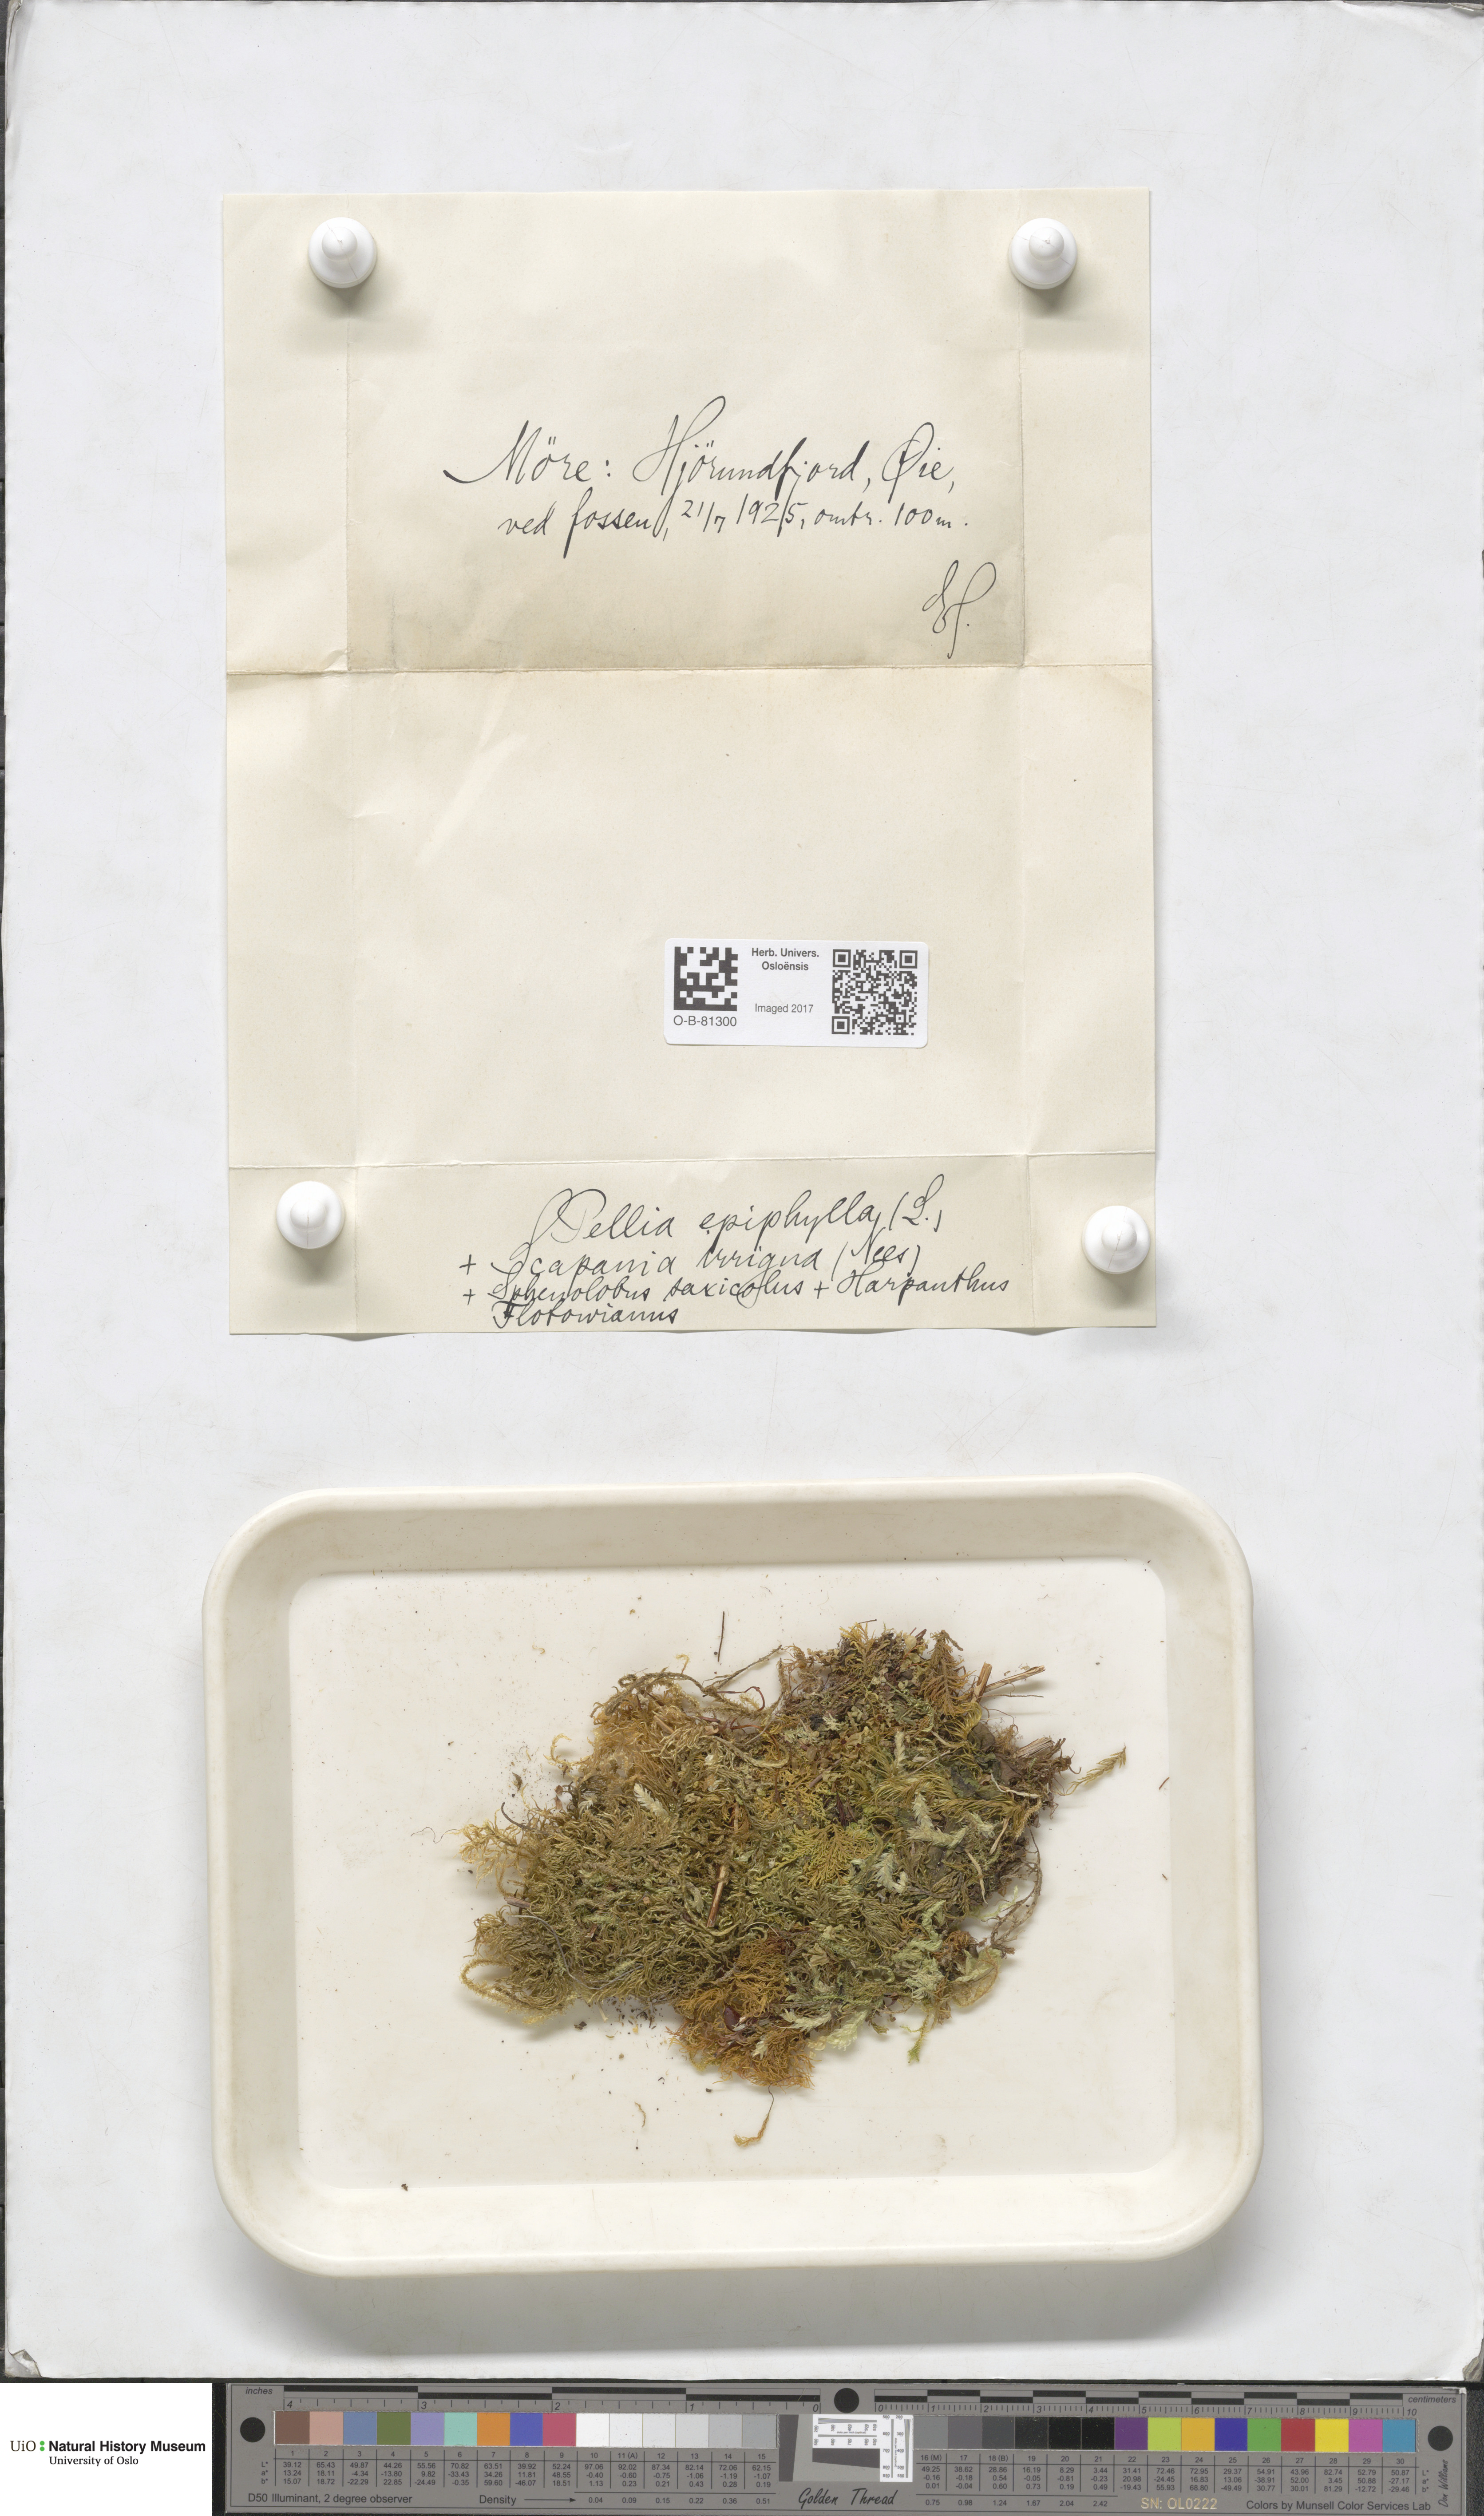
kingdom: Plantae
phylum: Marchantiophyta
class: Jungermanniopsida
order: Pelliales
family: Pelliaceae
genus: Pellia
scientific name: Pellia epiphylla
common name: Common pellia
